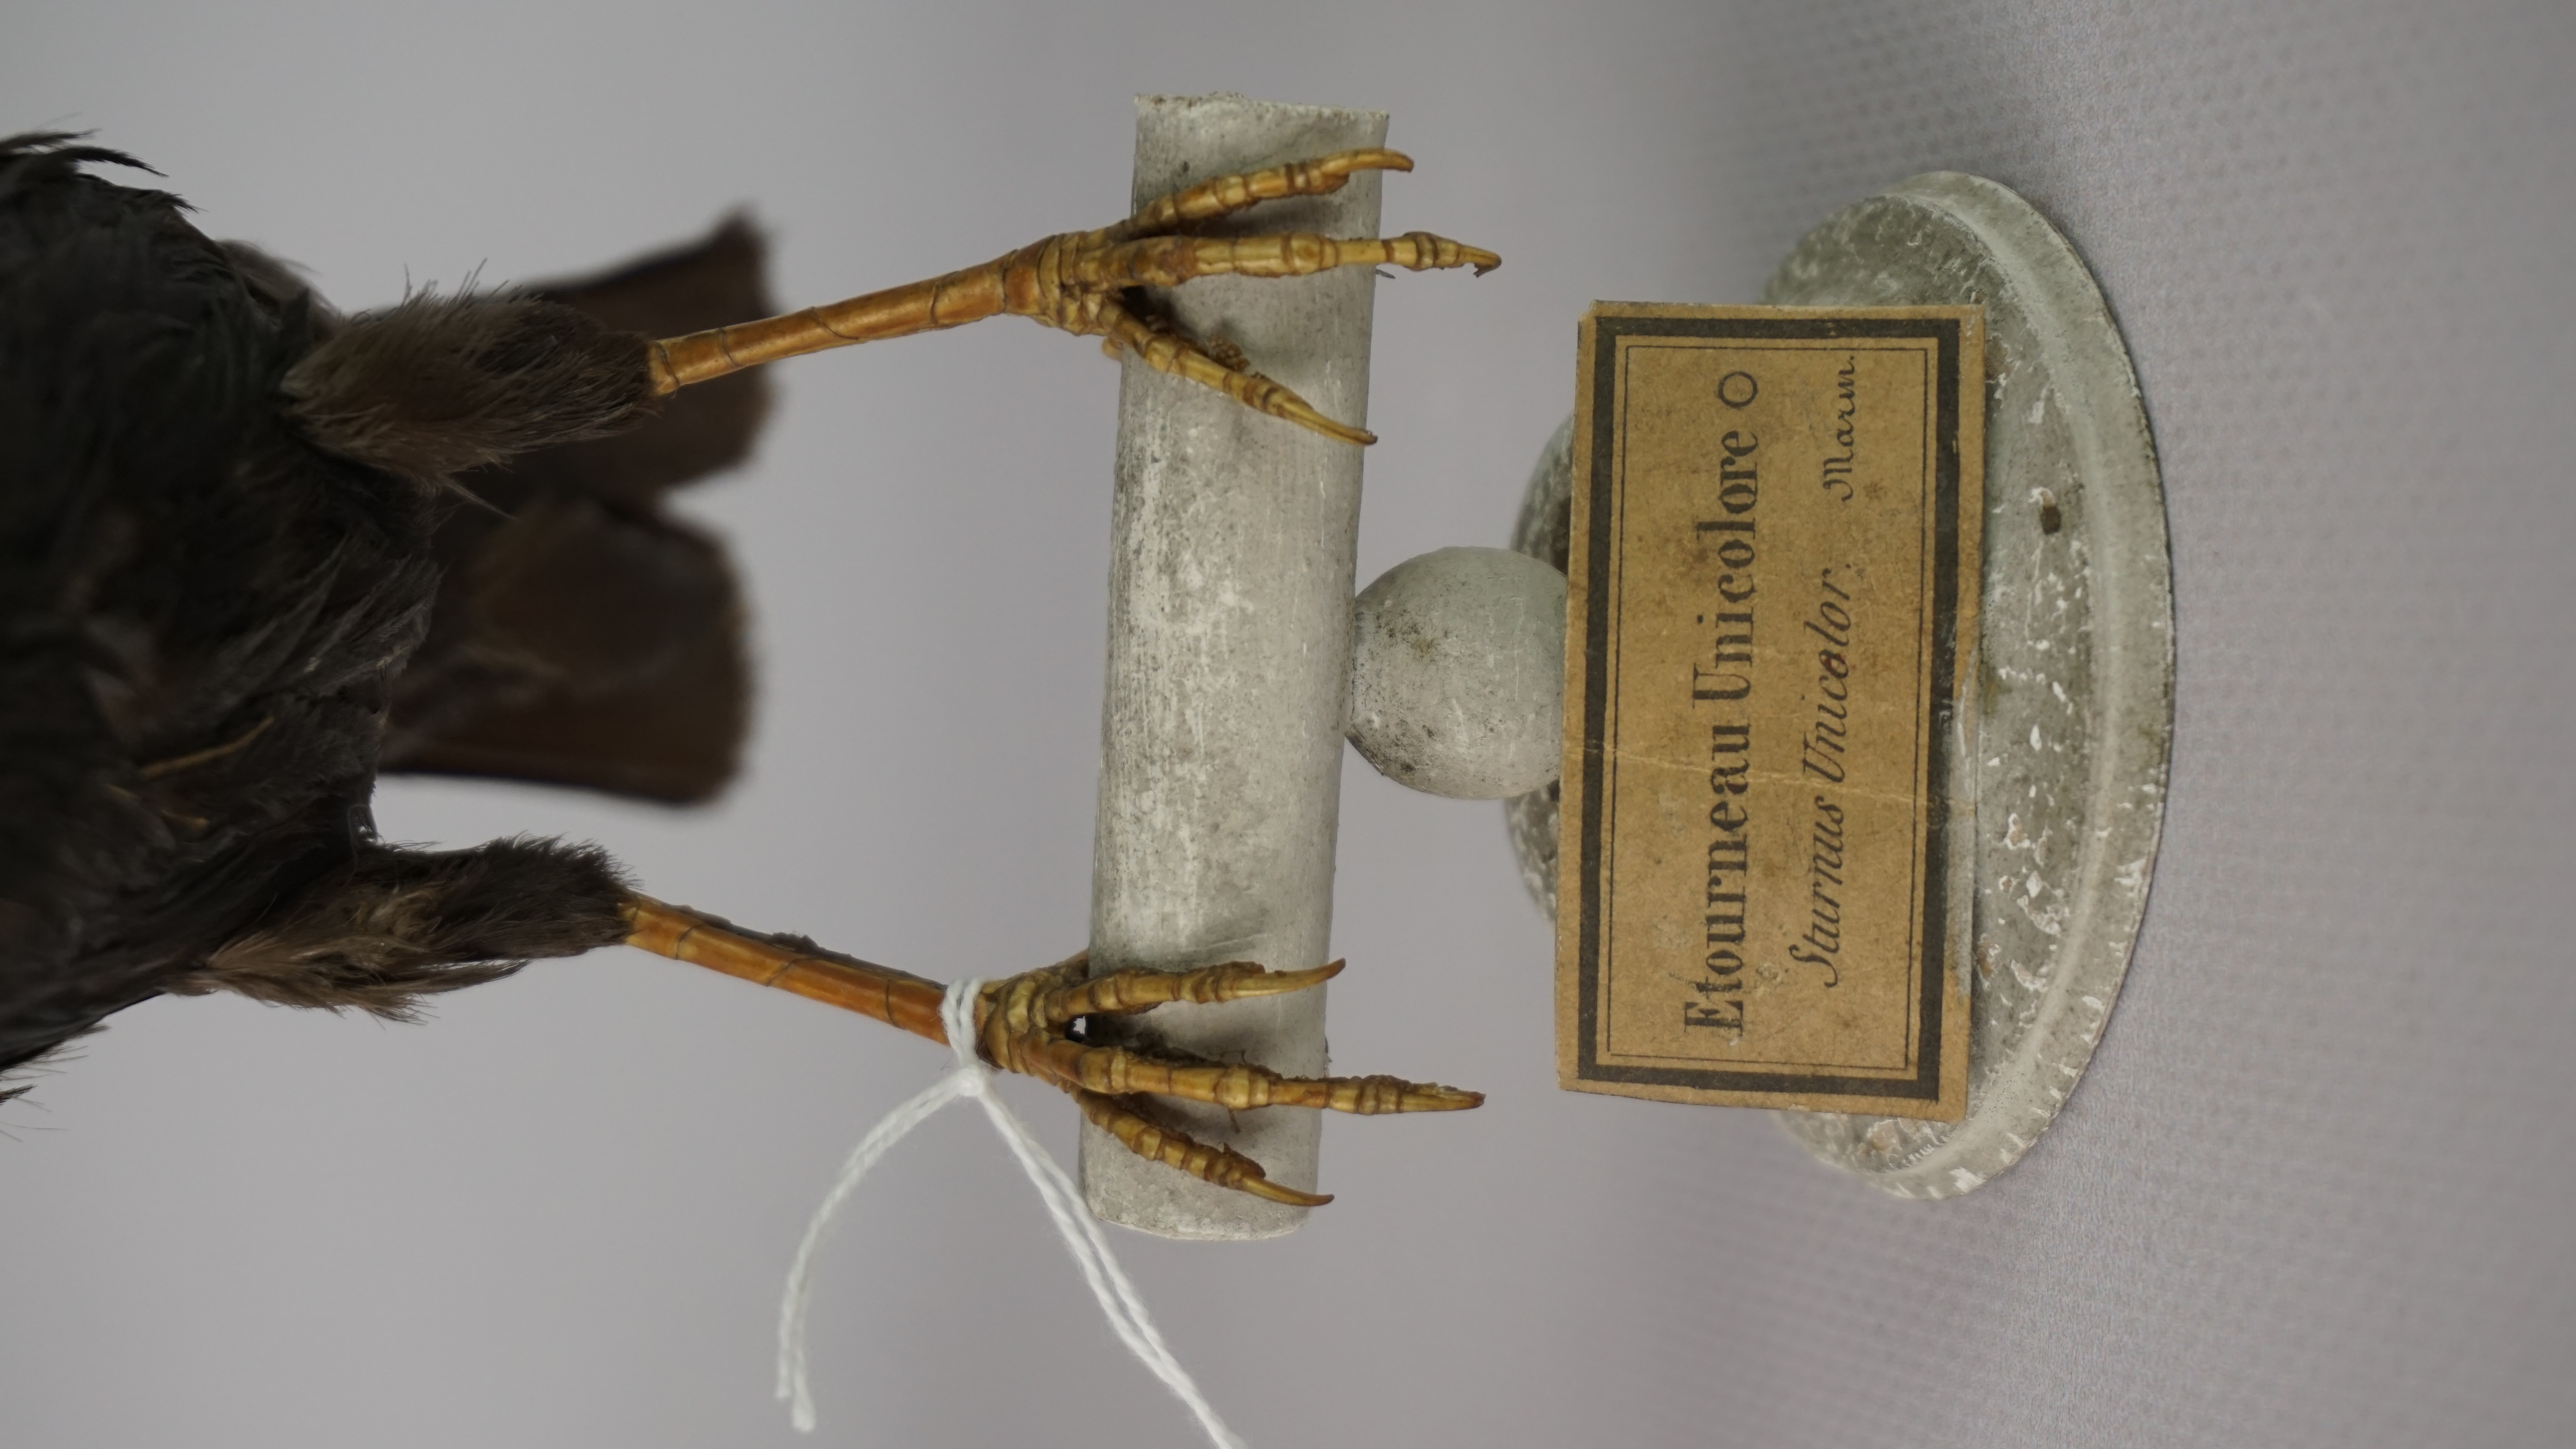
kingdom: Animalia
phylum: Chordata
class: Aves
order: Passeriformes
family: Sturnidae
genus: Sturnus
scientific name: Sturnus unicolor
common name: Spotless starling
